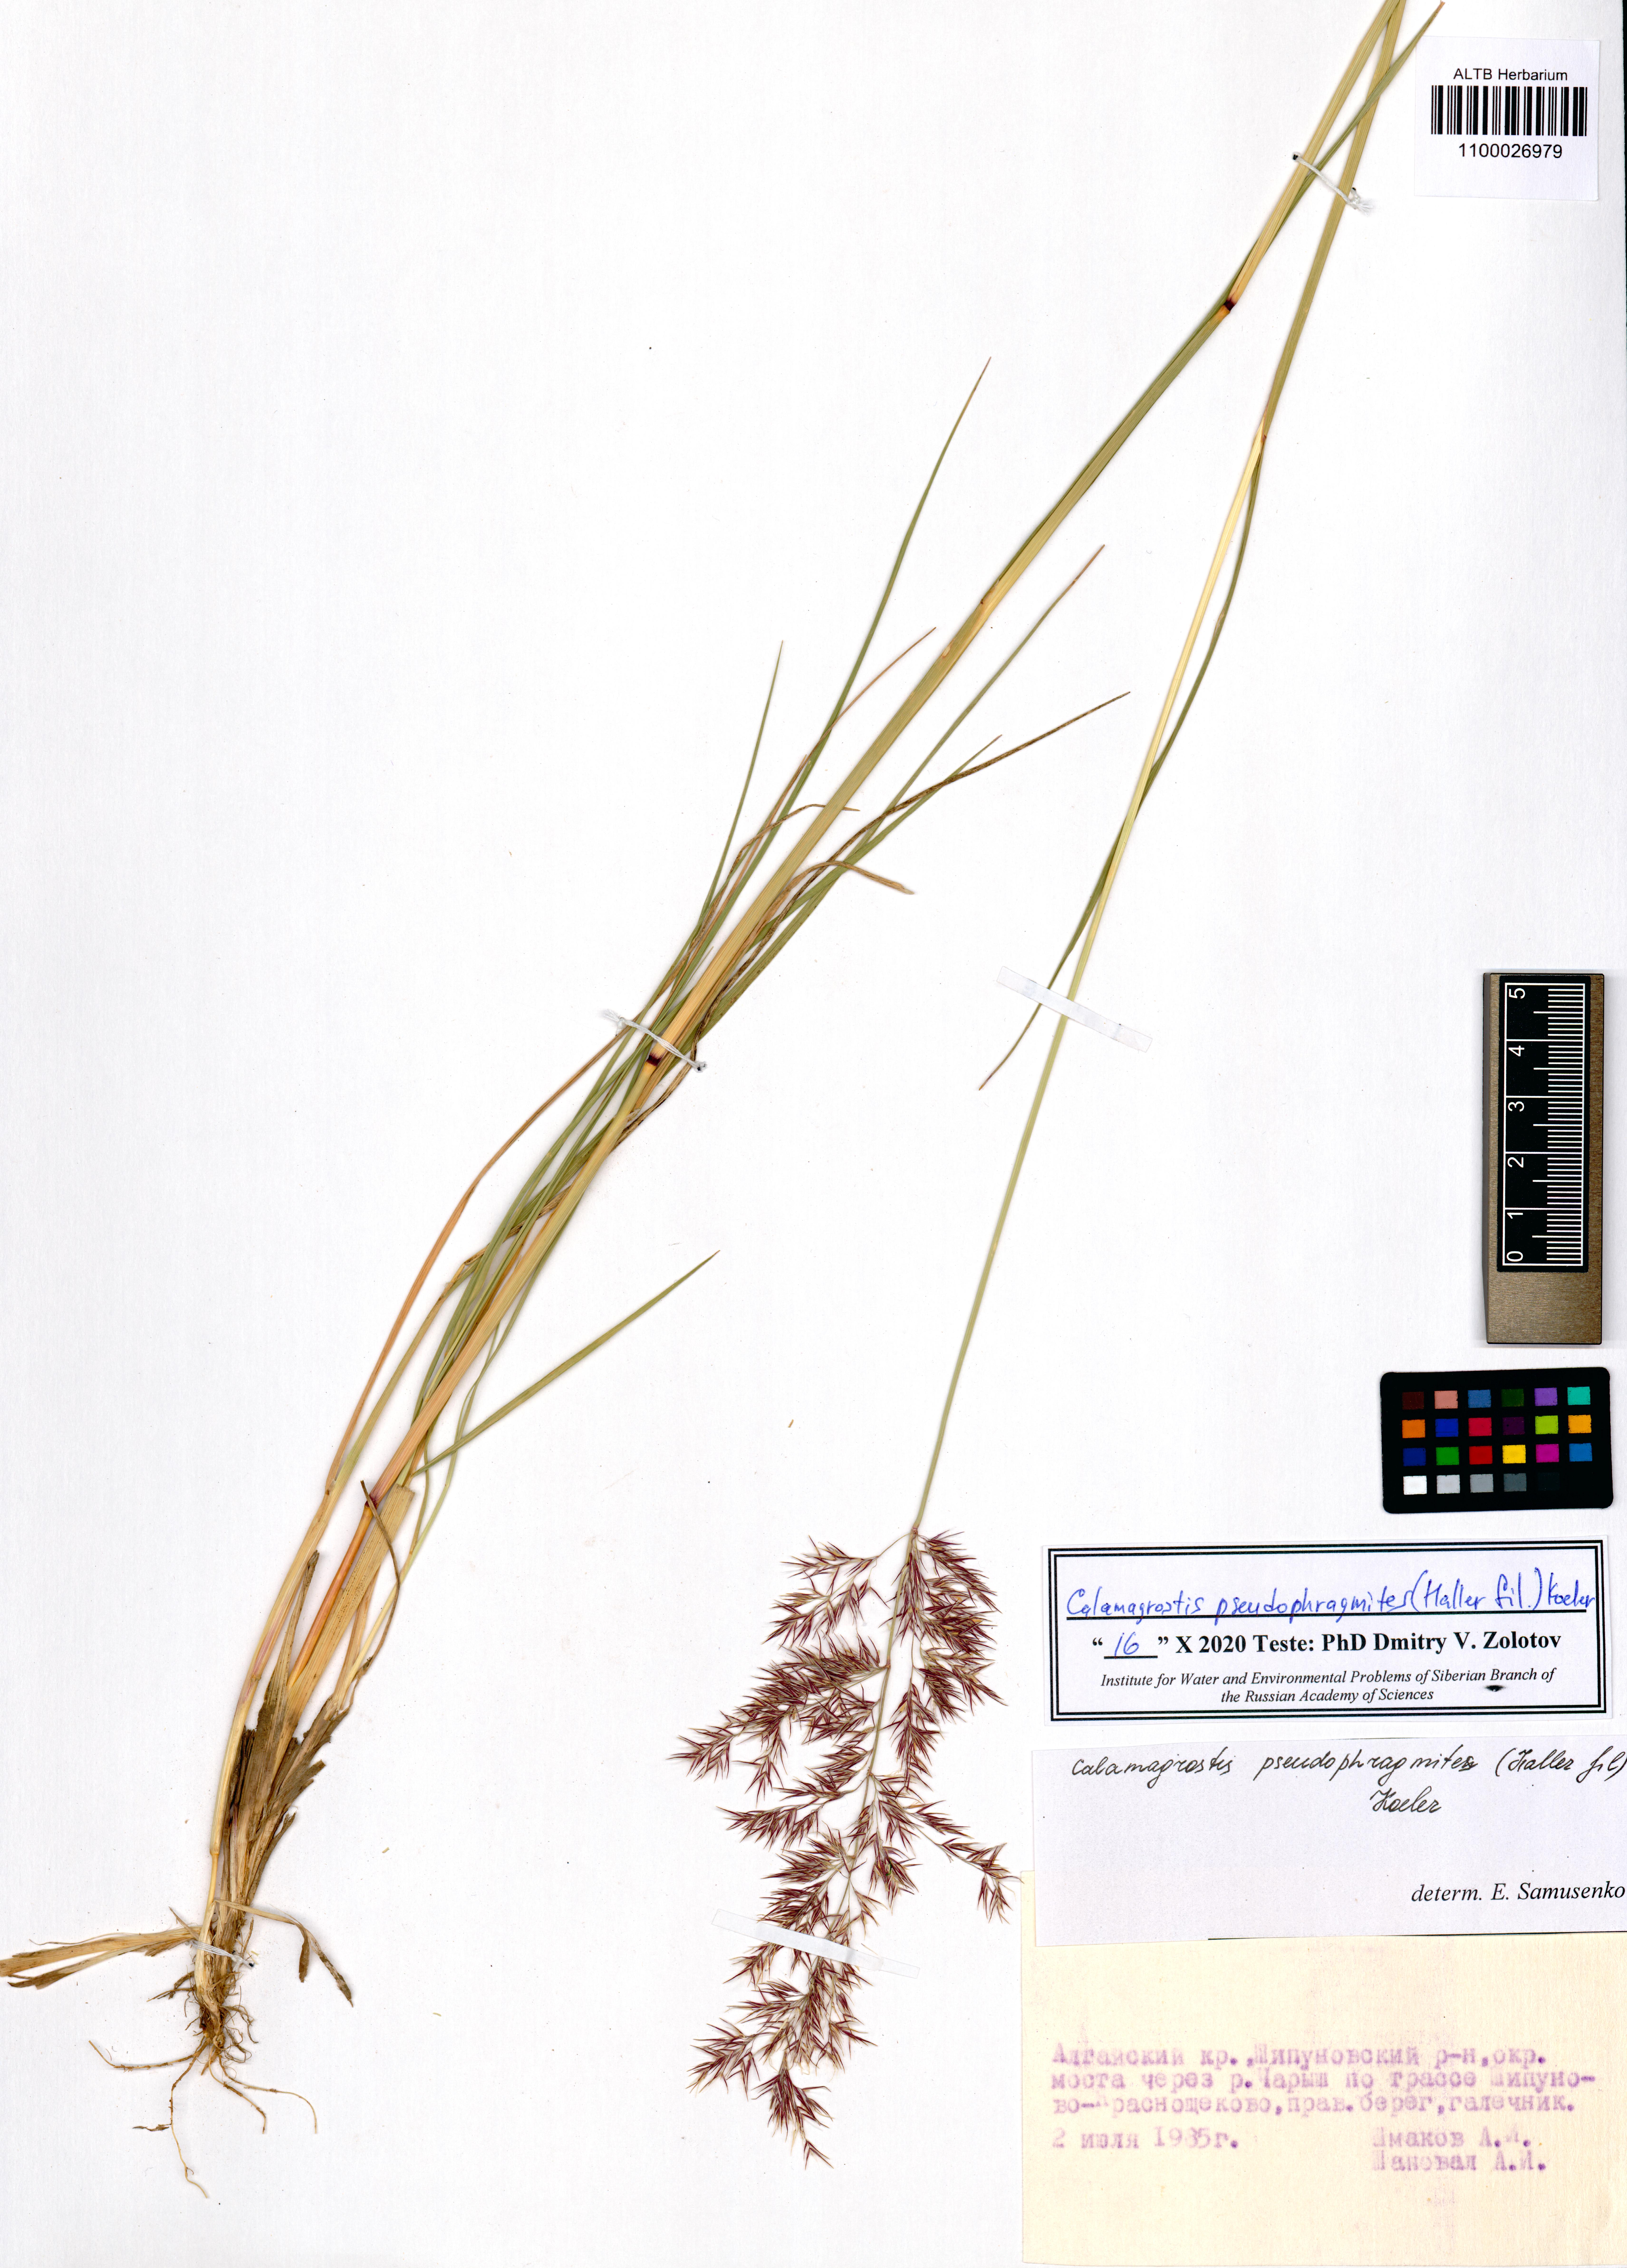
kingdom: Plantae
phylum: Tracheophyta
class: Liliopsida
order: Poales
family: Poaceae
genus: Calamagrostis
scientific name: Calamagrostis pseudophragmites
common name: Coastal small-reed
